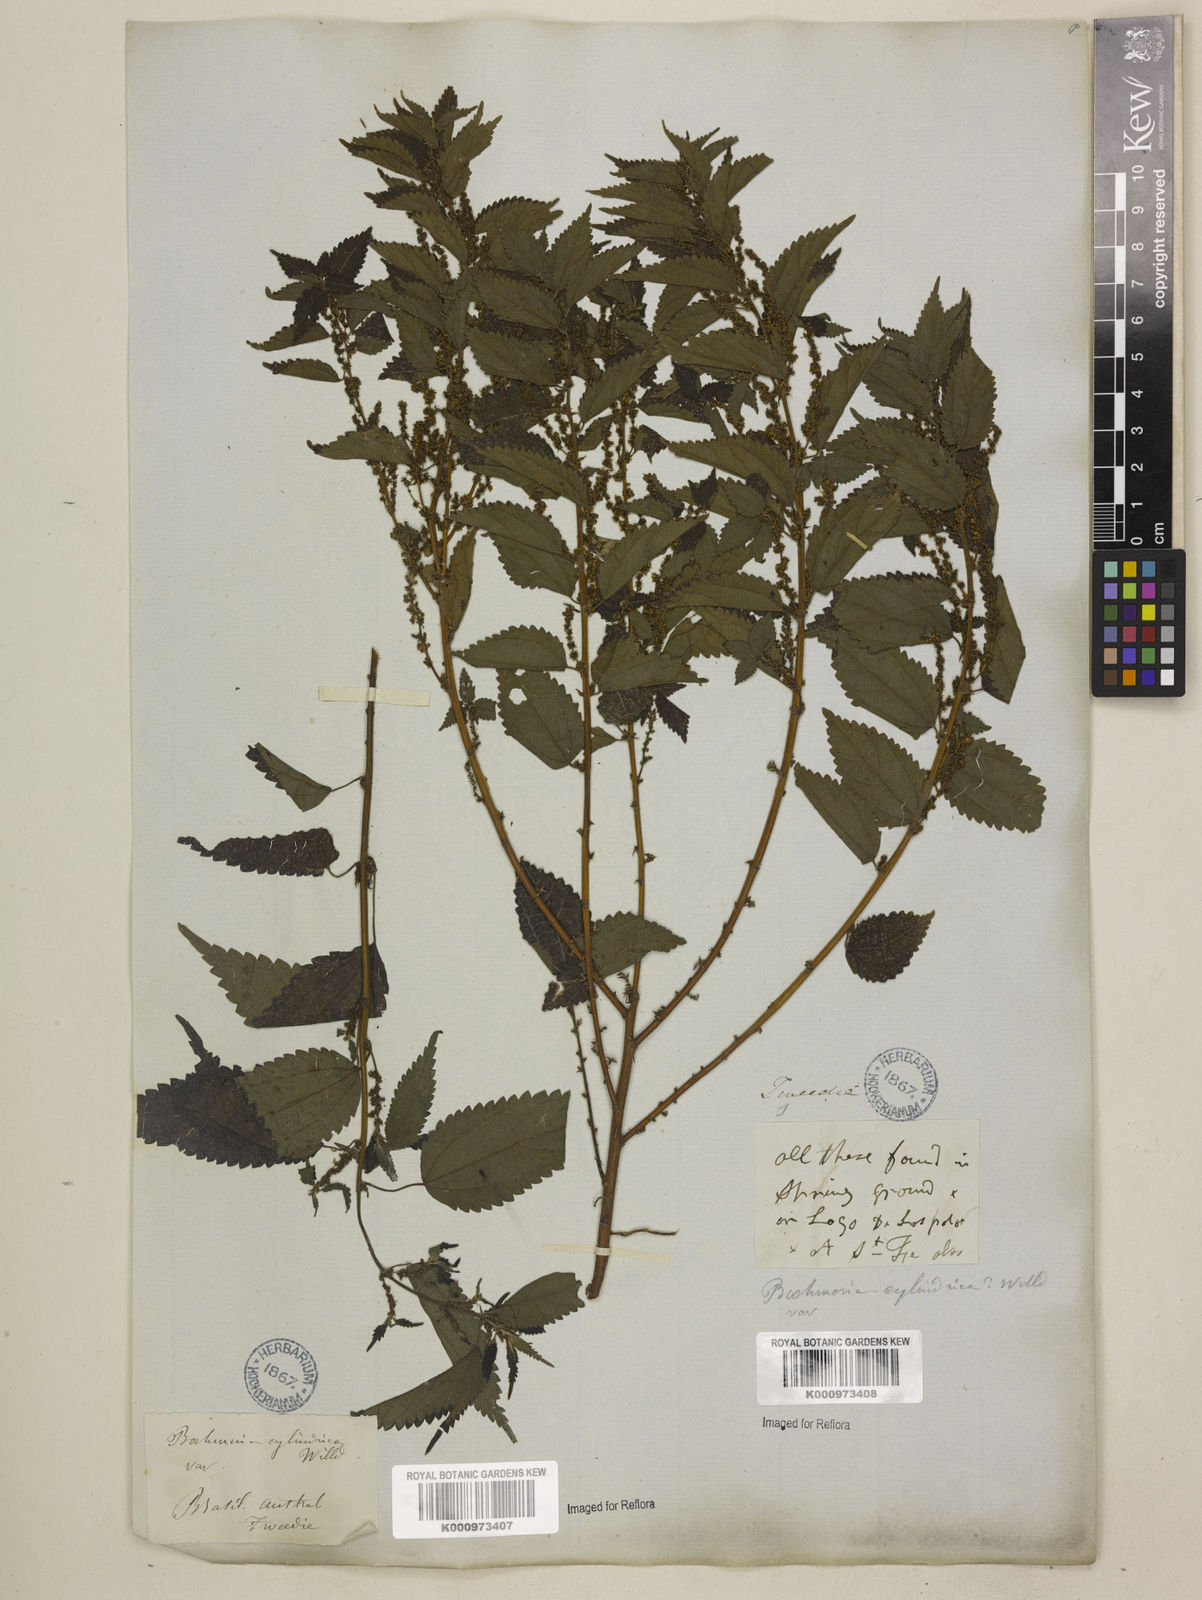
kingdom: Plantae
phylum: Tracheophyta
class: Magnoliopsida
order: Rosales
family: Urticaceae
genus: Boehmeria
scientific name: Boehmeria cylindrica
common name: Bog-hemp
